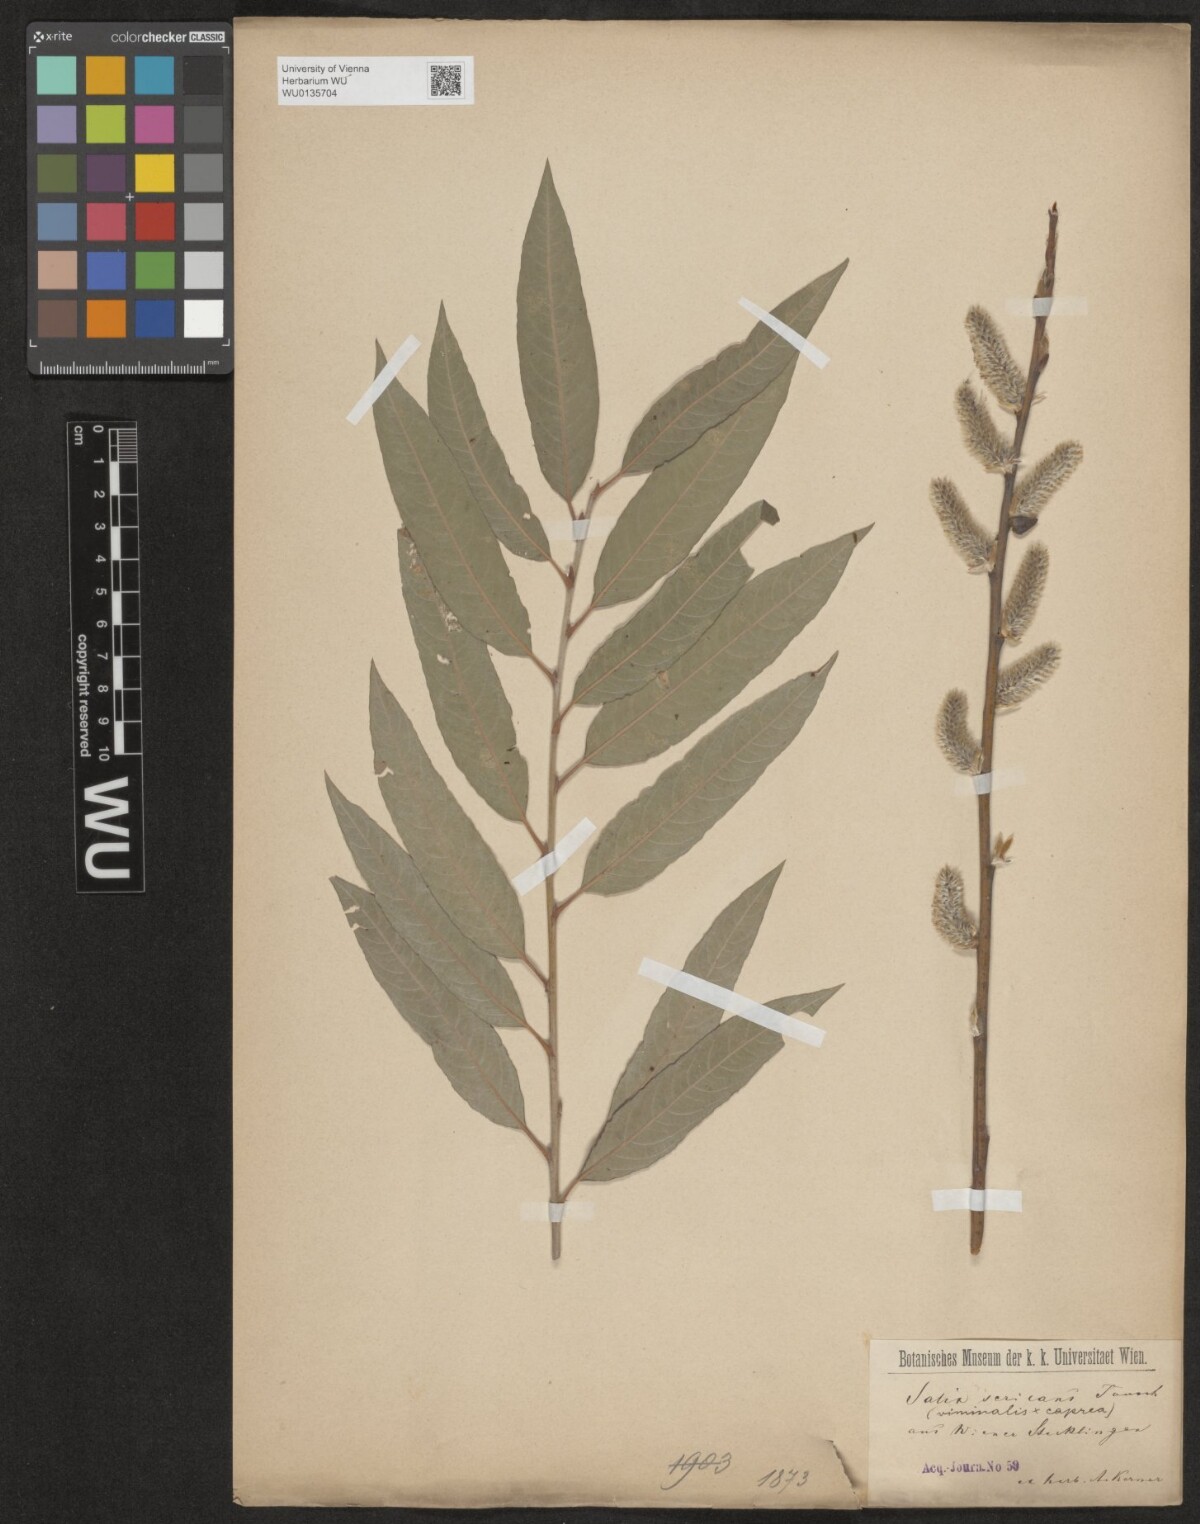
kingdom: Plantae
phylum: Tracheophyta
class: Magnoliopsida
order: Malpighiales
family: Salicaceae
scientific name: Salicaceae
